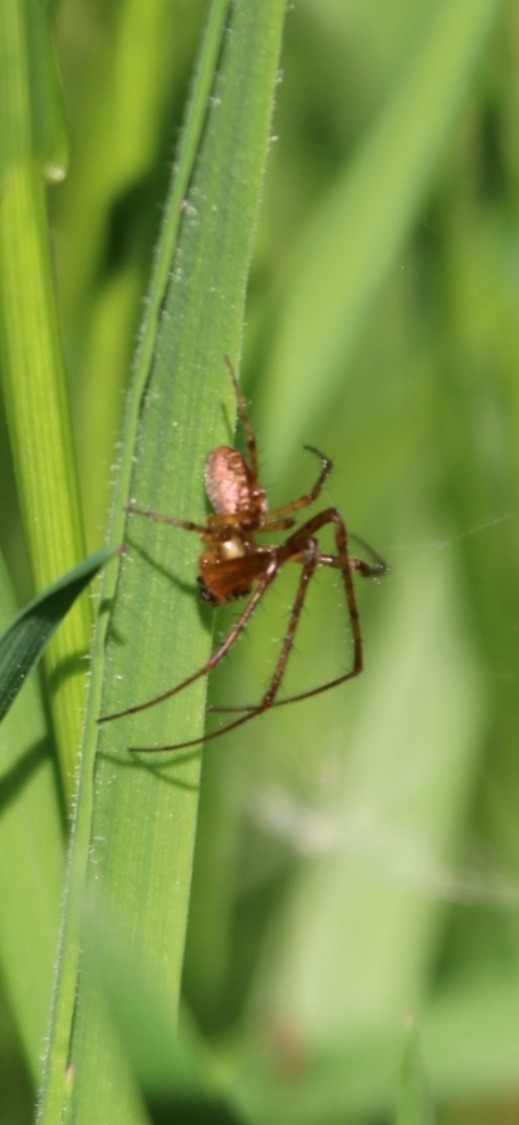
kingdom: Animalia
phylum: Arthropoda
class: Arachnida
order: Araneae
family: Tetragnathidae
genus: Metellina
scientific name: Metellina
